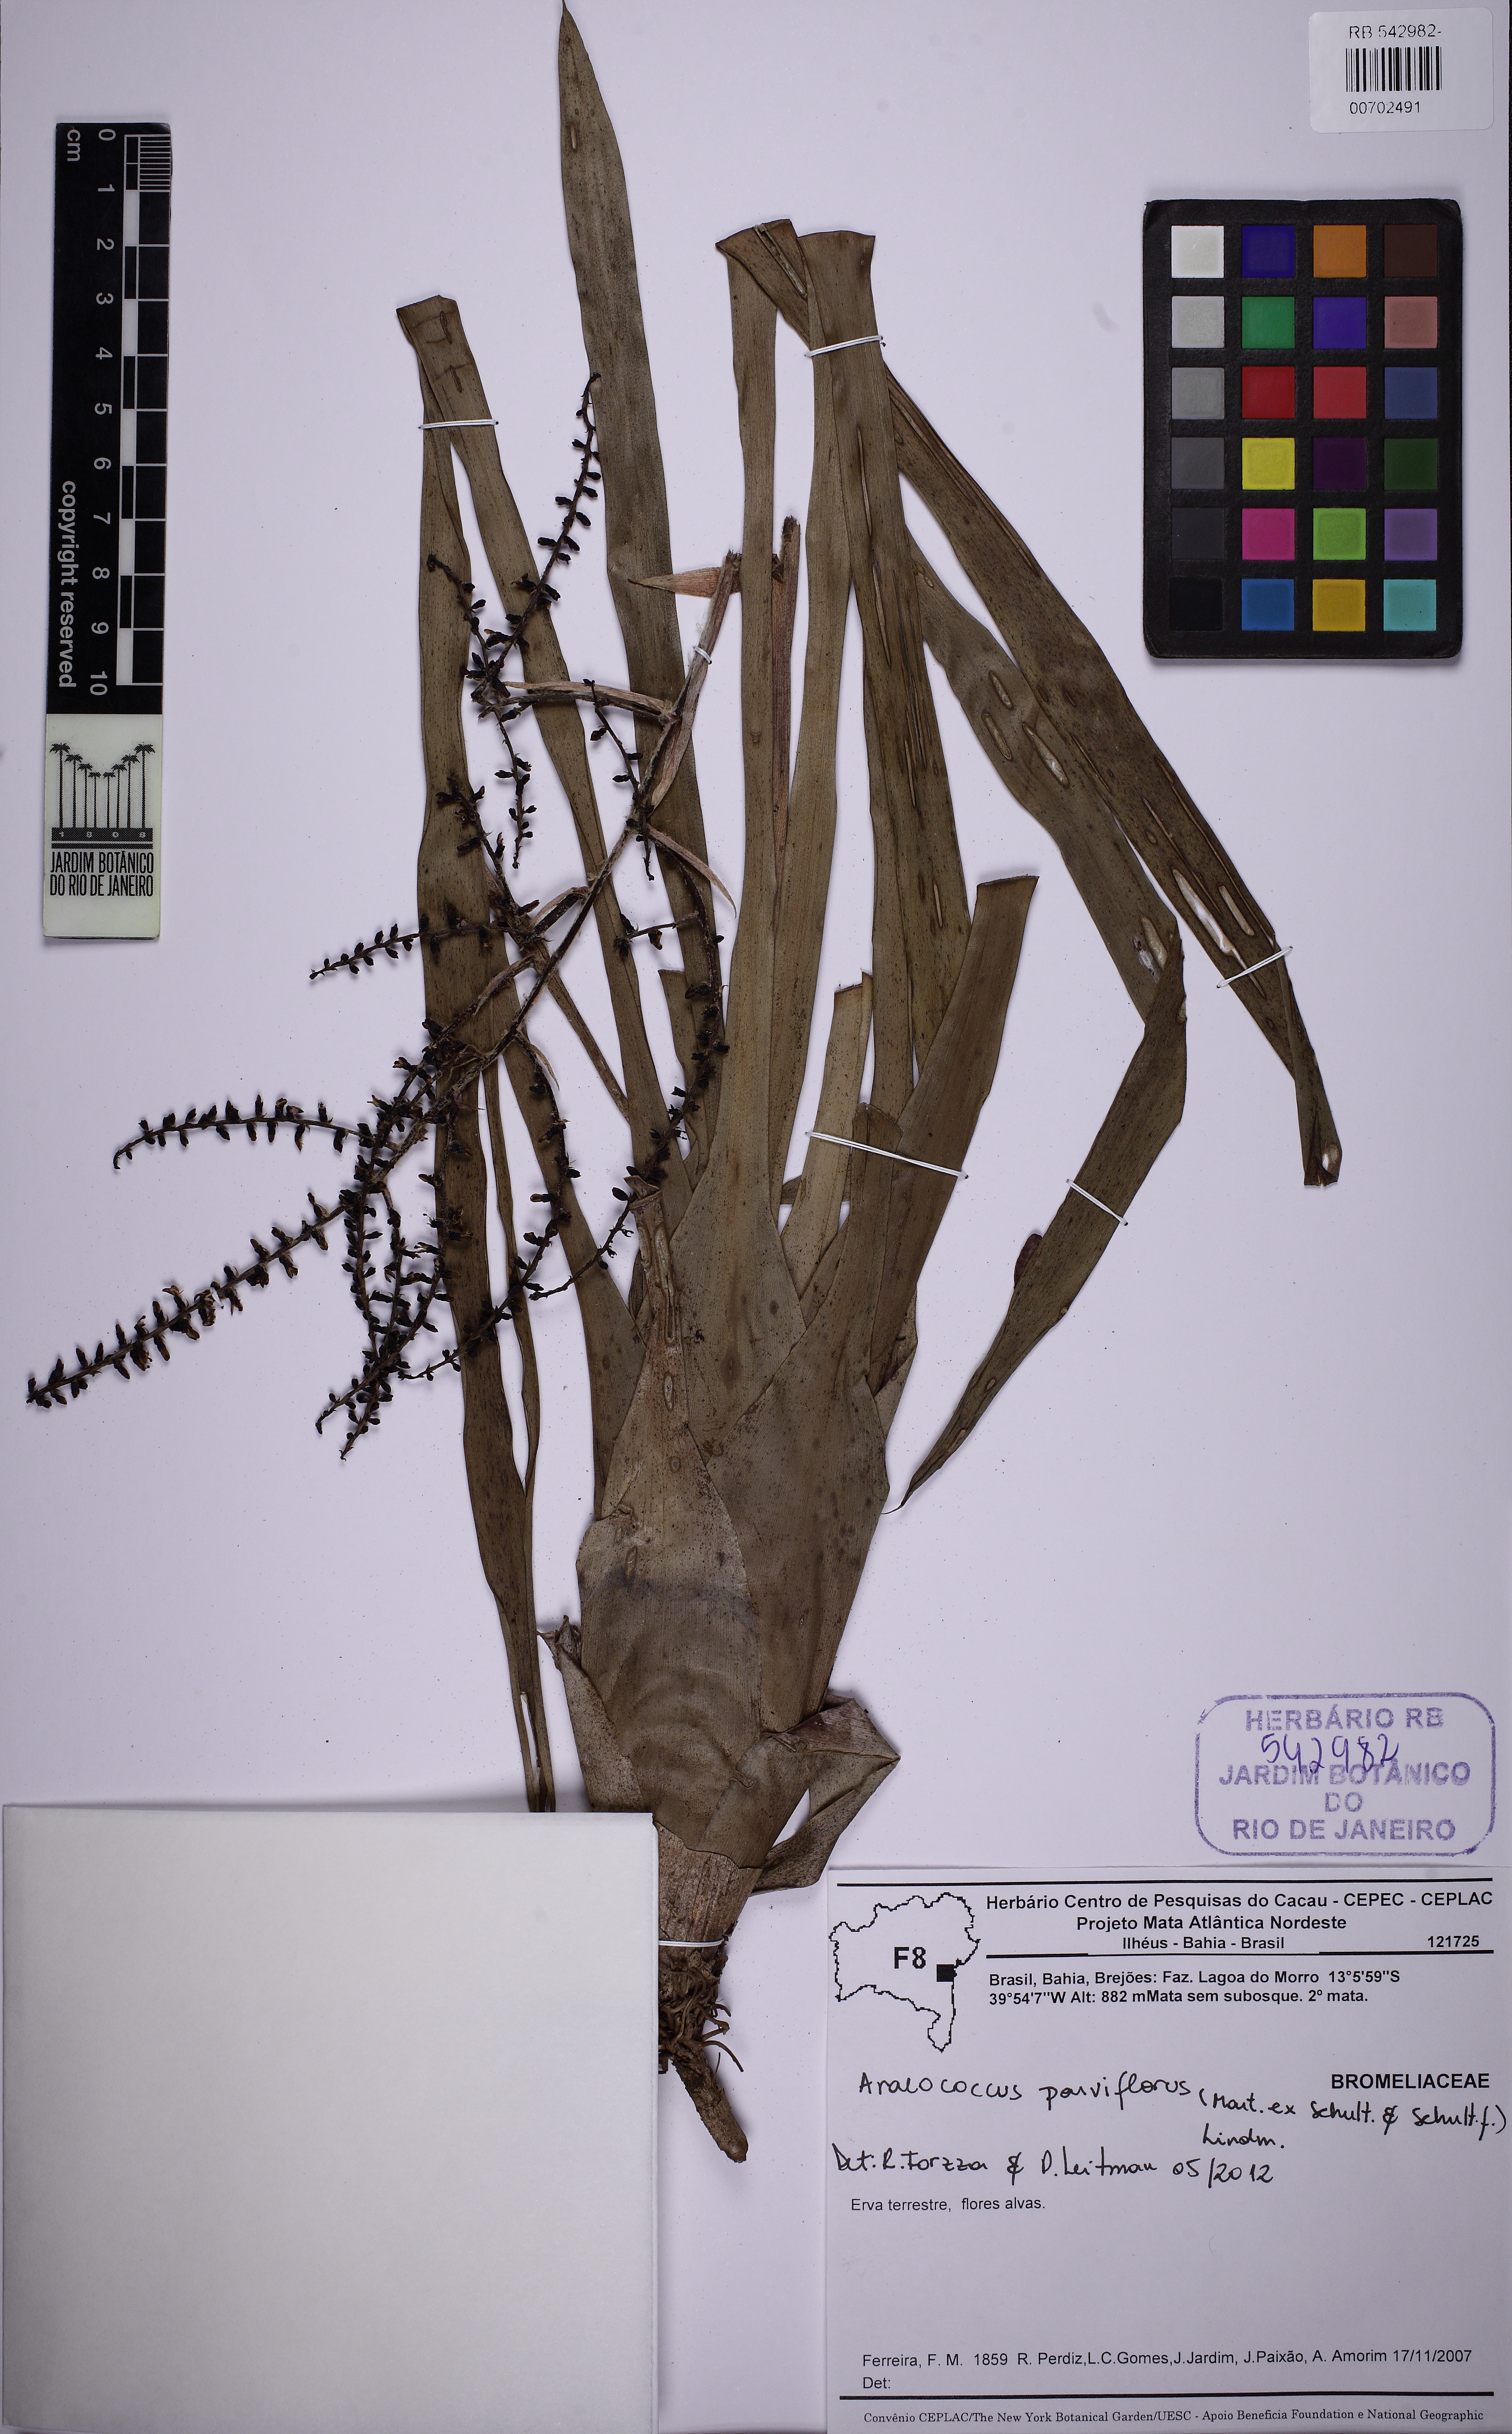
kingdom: Plantae
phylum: Tracheophyta
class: Liliopsida
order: Poales
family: Bromeliaceae
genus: Pseudaraeococcus
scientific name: Pseudaraeococcus sessiliflorus
